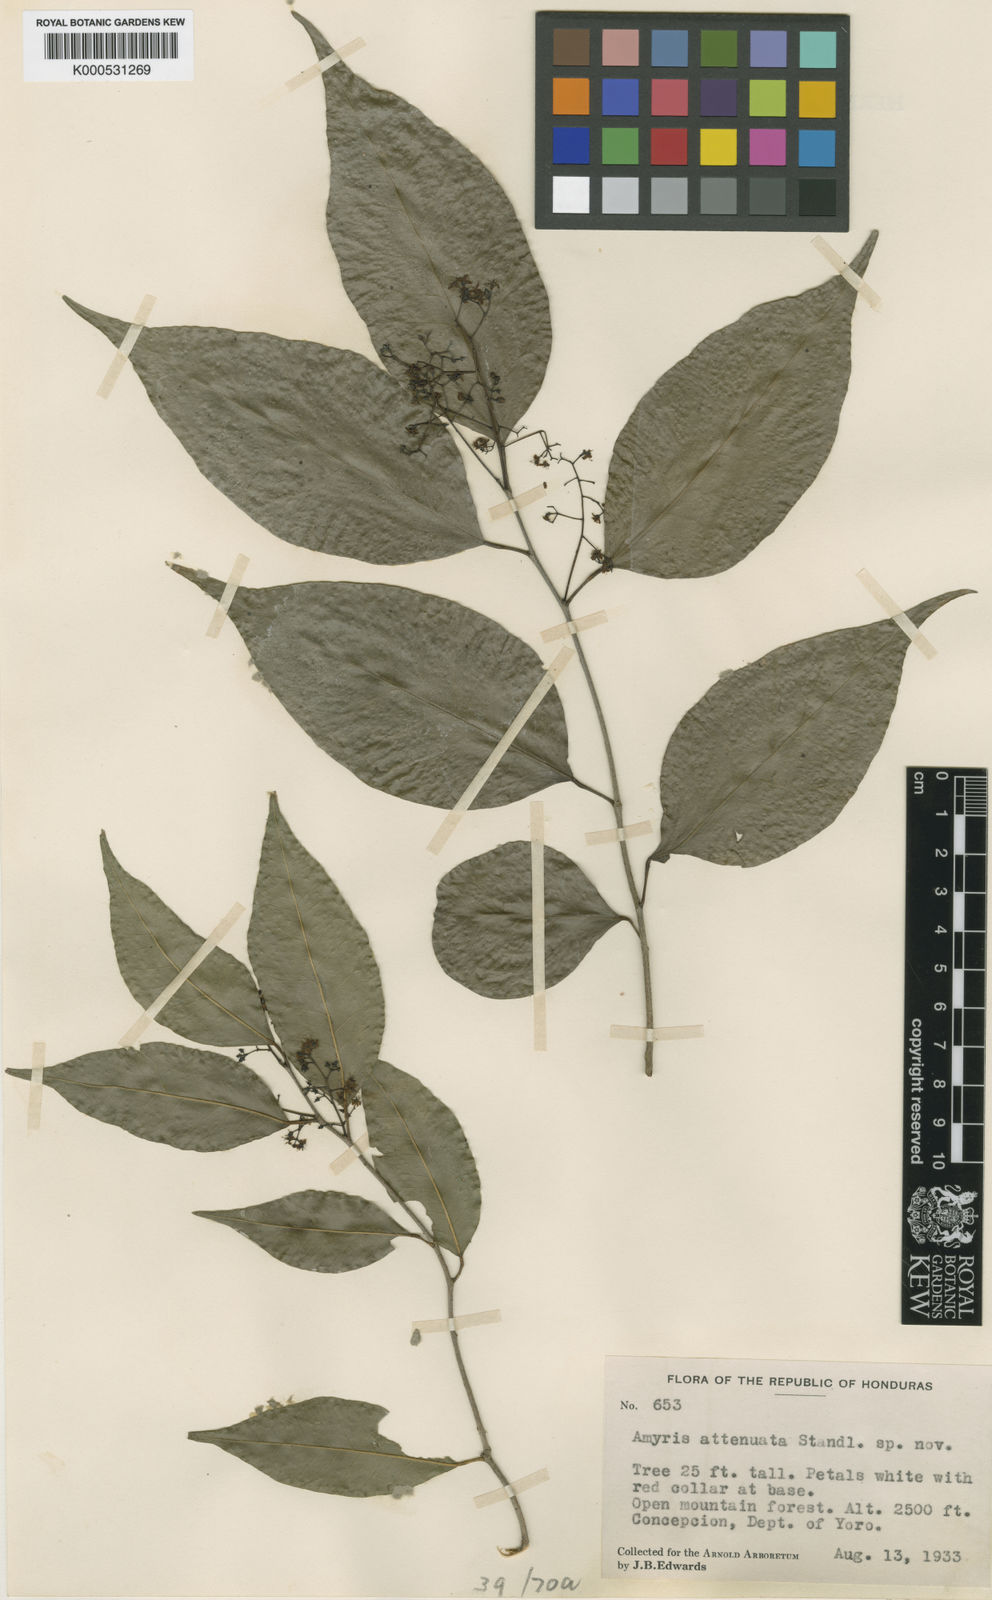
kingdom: Plantae
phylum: Tracheophyta
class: Magnoliopsida
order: Sapindales
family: Rutaceae
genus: Amyris
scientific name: Amyris attenuata
